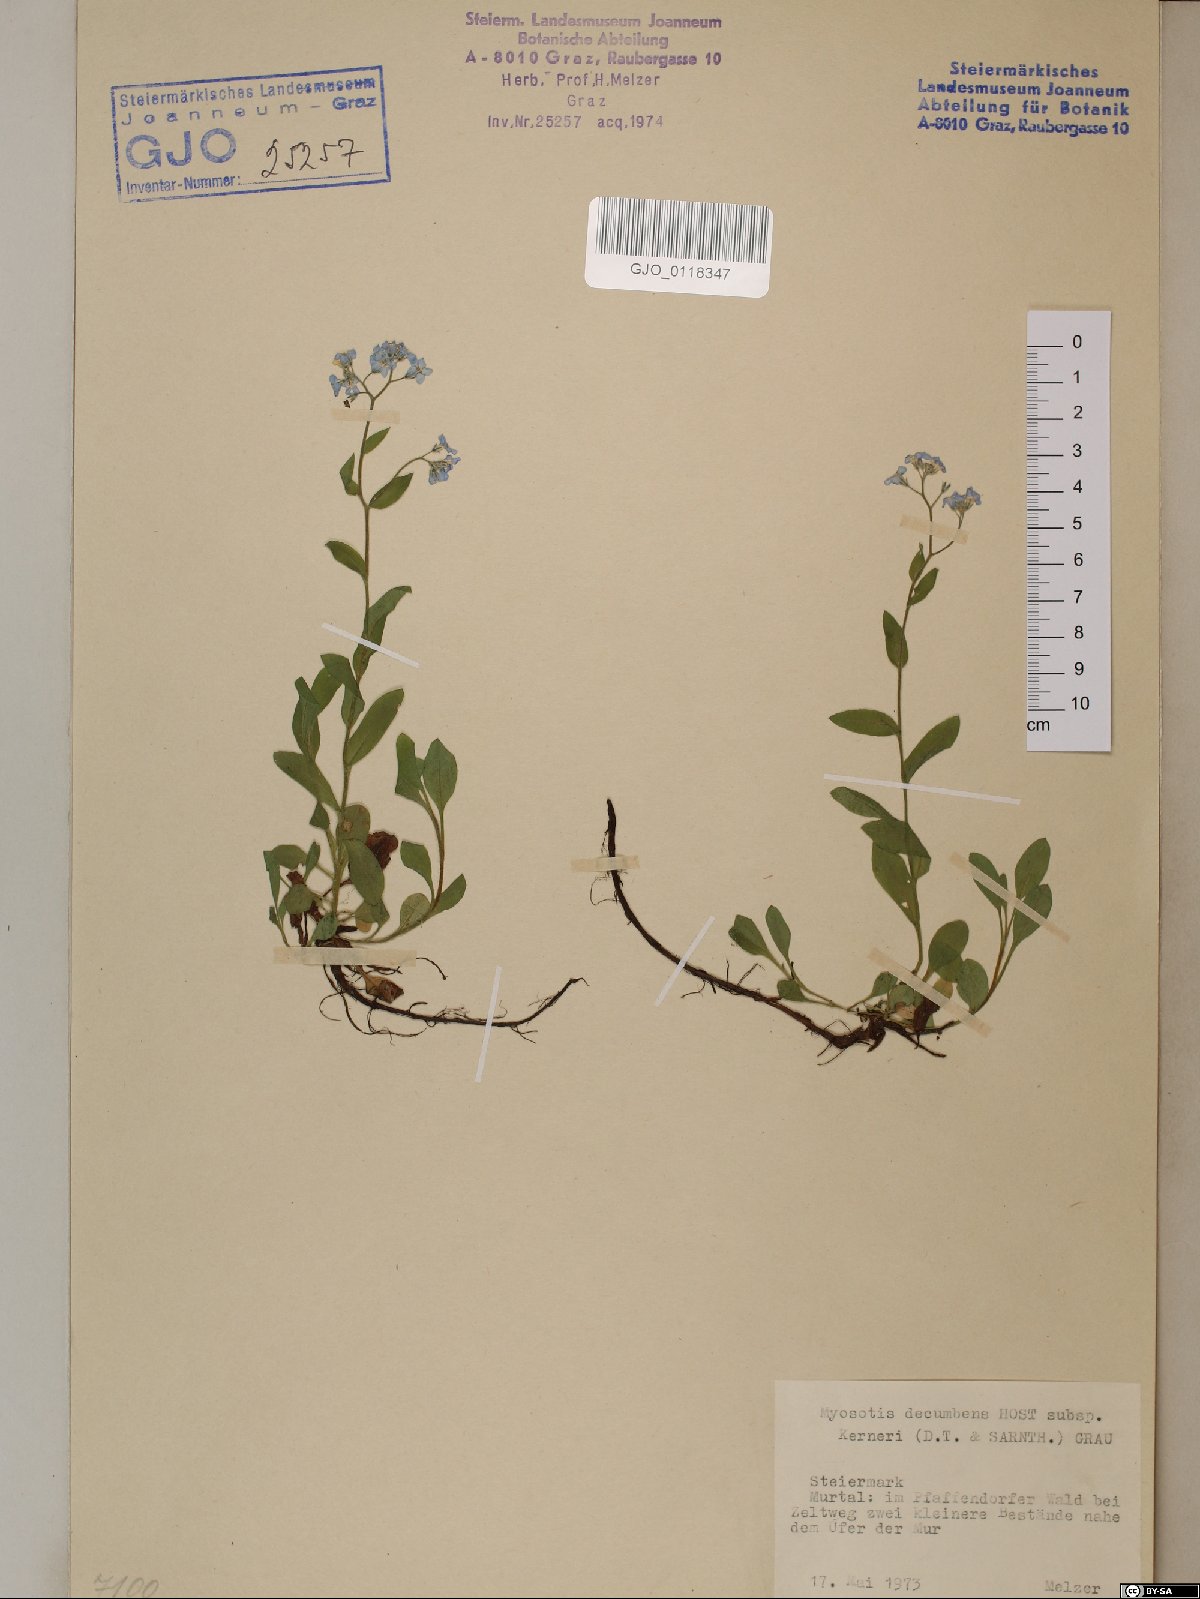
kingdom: Plantae
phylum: Tracheophyta
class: Magnoliopsida
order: Boraginales
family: Boraginaceae
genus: Myosotis
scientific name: Myosotis decumbens
